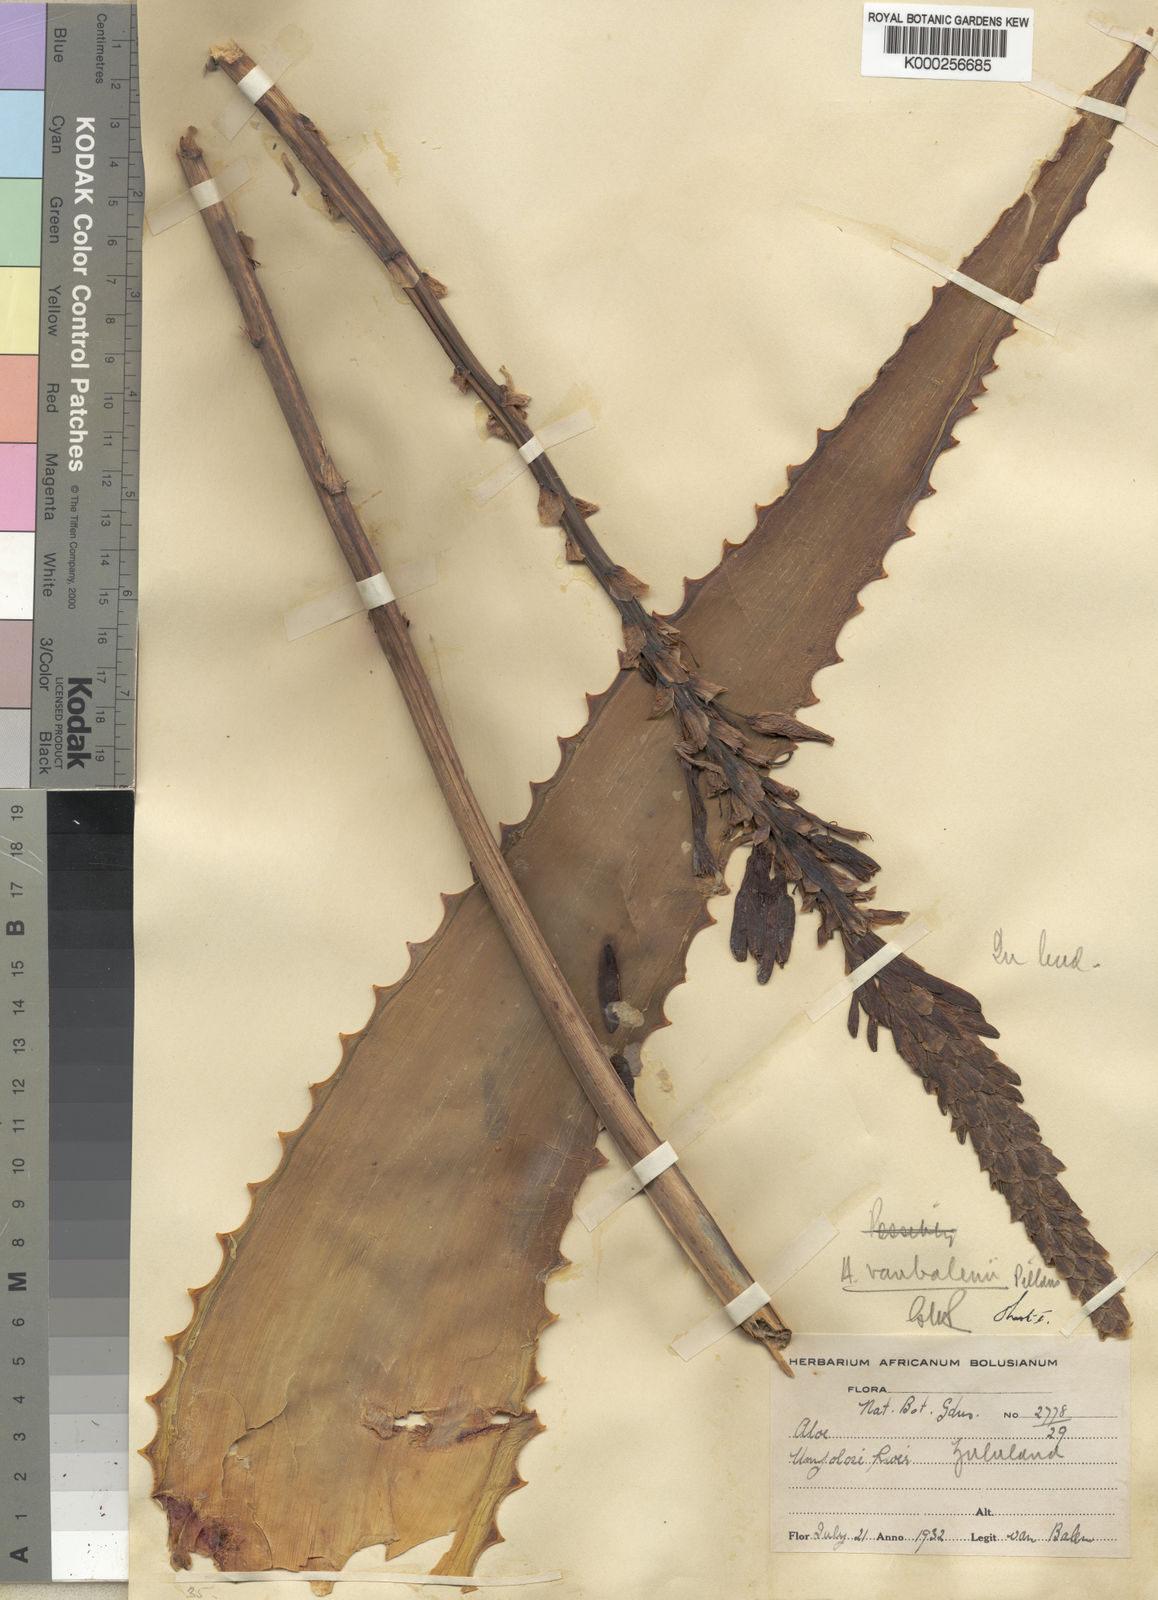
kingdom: Plantae
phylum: Tracheophyta
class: Liliopsida
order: Asparagales
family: Asphodelaceae
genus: Aloe
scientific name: Aloe vanbalenii
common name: Van balen's aloe
